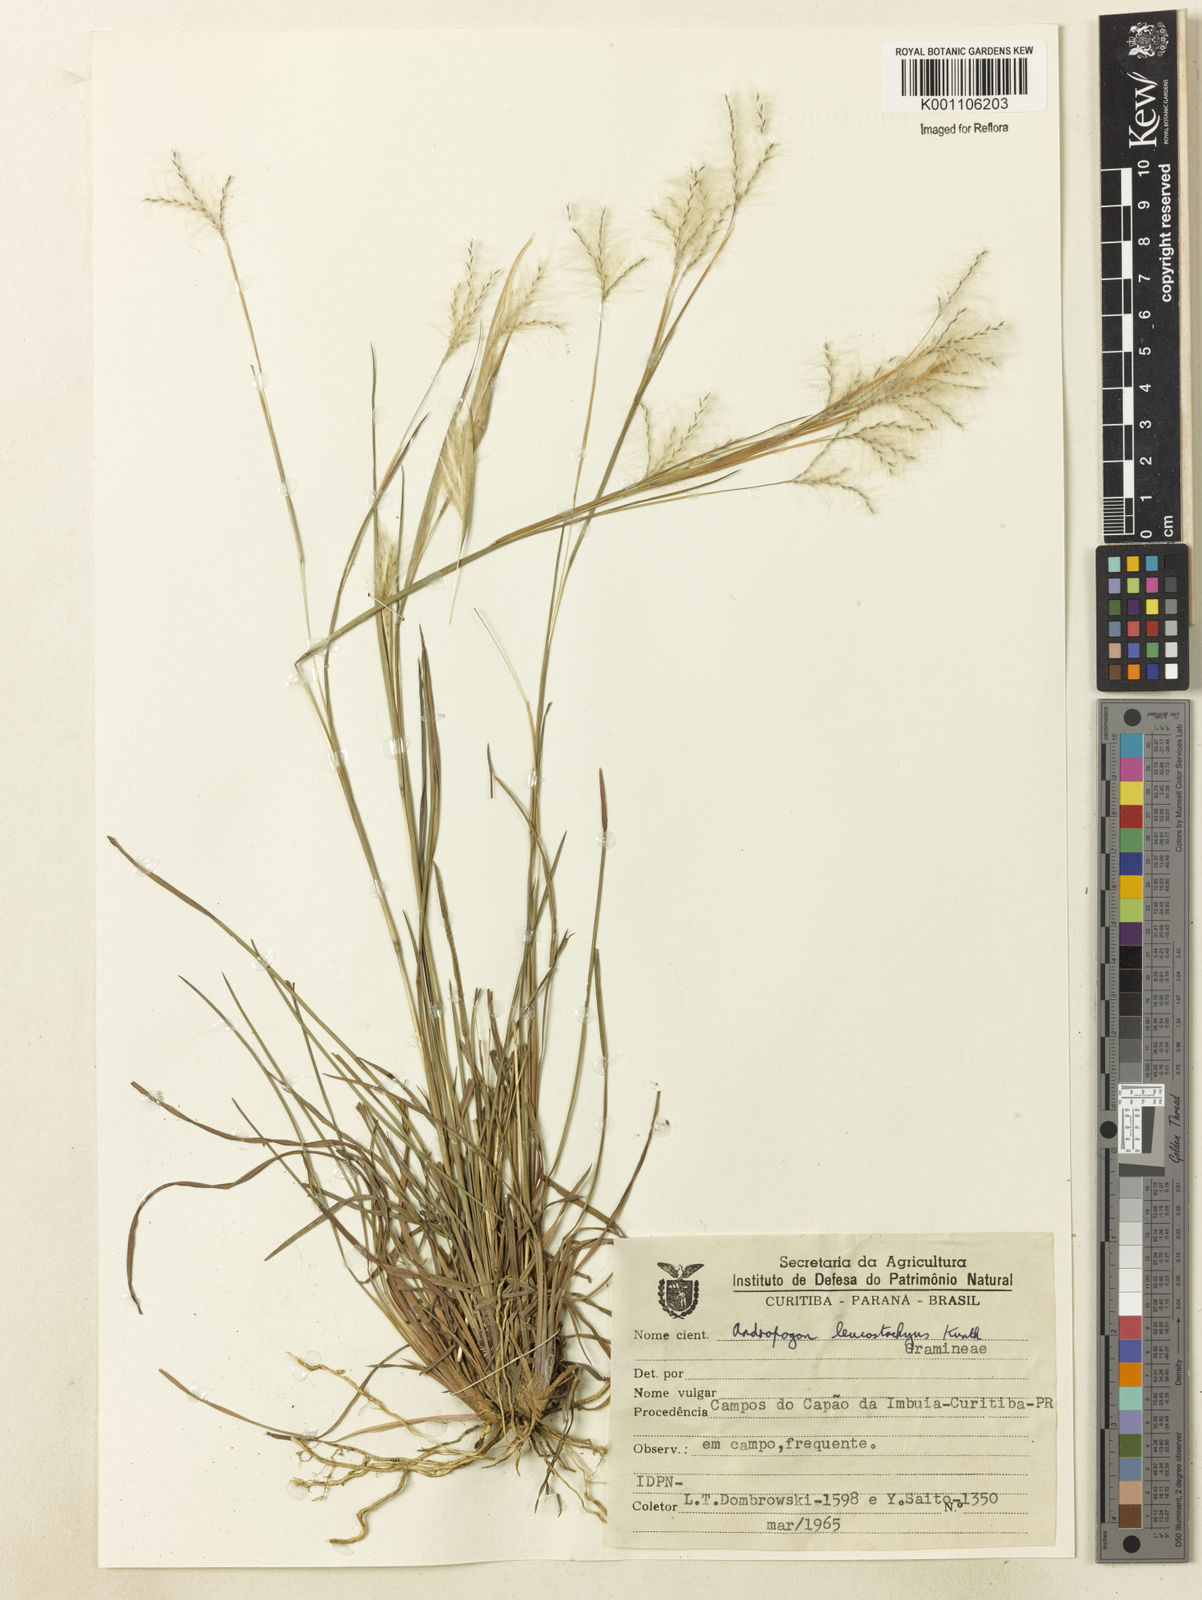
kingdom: Plantae
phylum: Tracheophyta
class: Liliopsida
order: Poales
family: Poaceae
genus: Andropogon
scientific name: Andropogon leucostachyus
